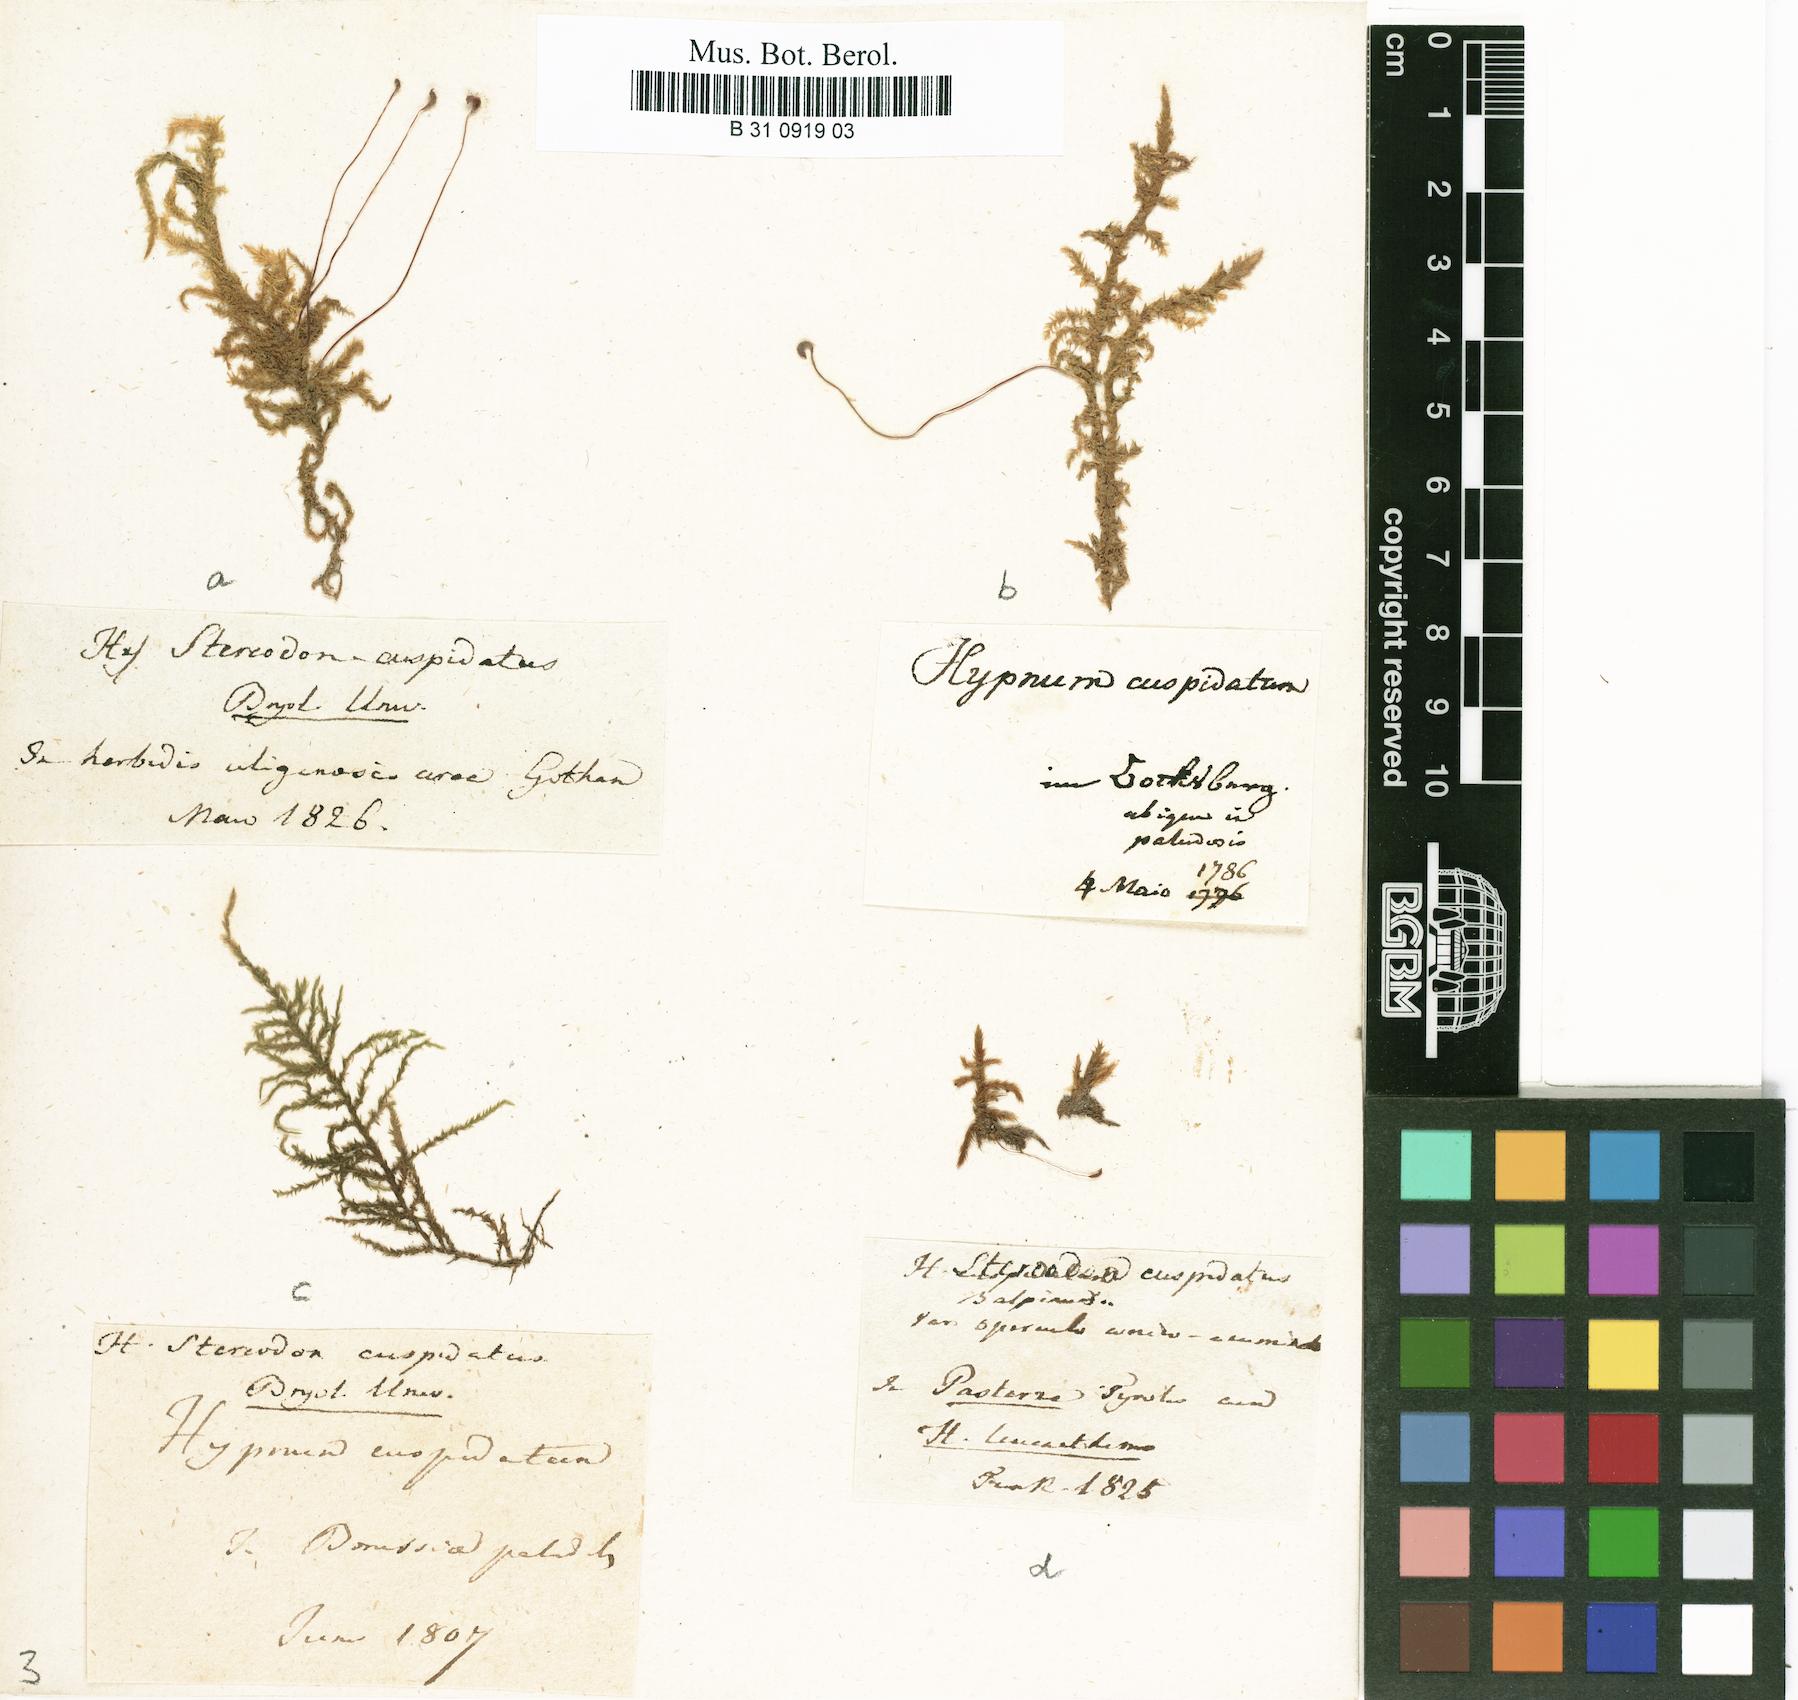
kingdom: Plantae
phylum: Bryophyta
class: Bryopsida
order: Hypnales
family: Pylaisiaceae
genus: Calliergonella
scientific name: Calliergonella cuspidata
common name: Common large wetland moss
